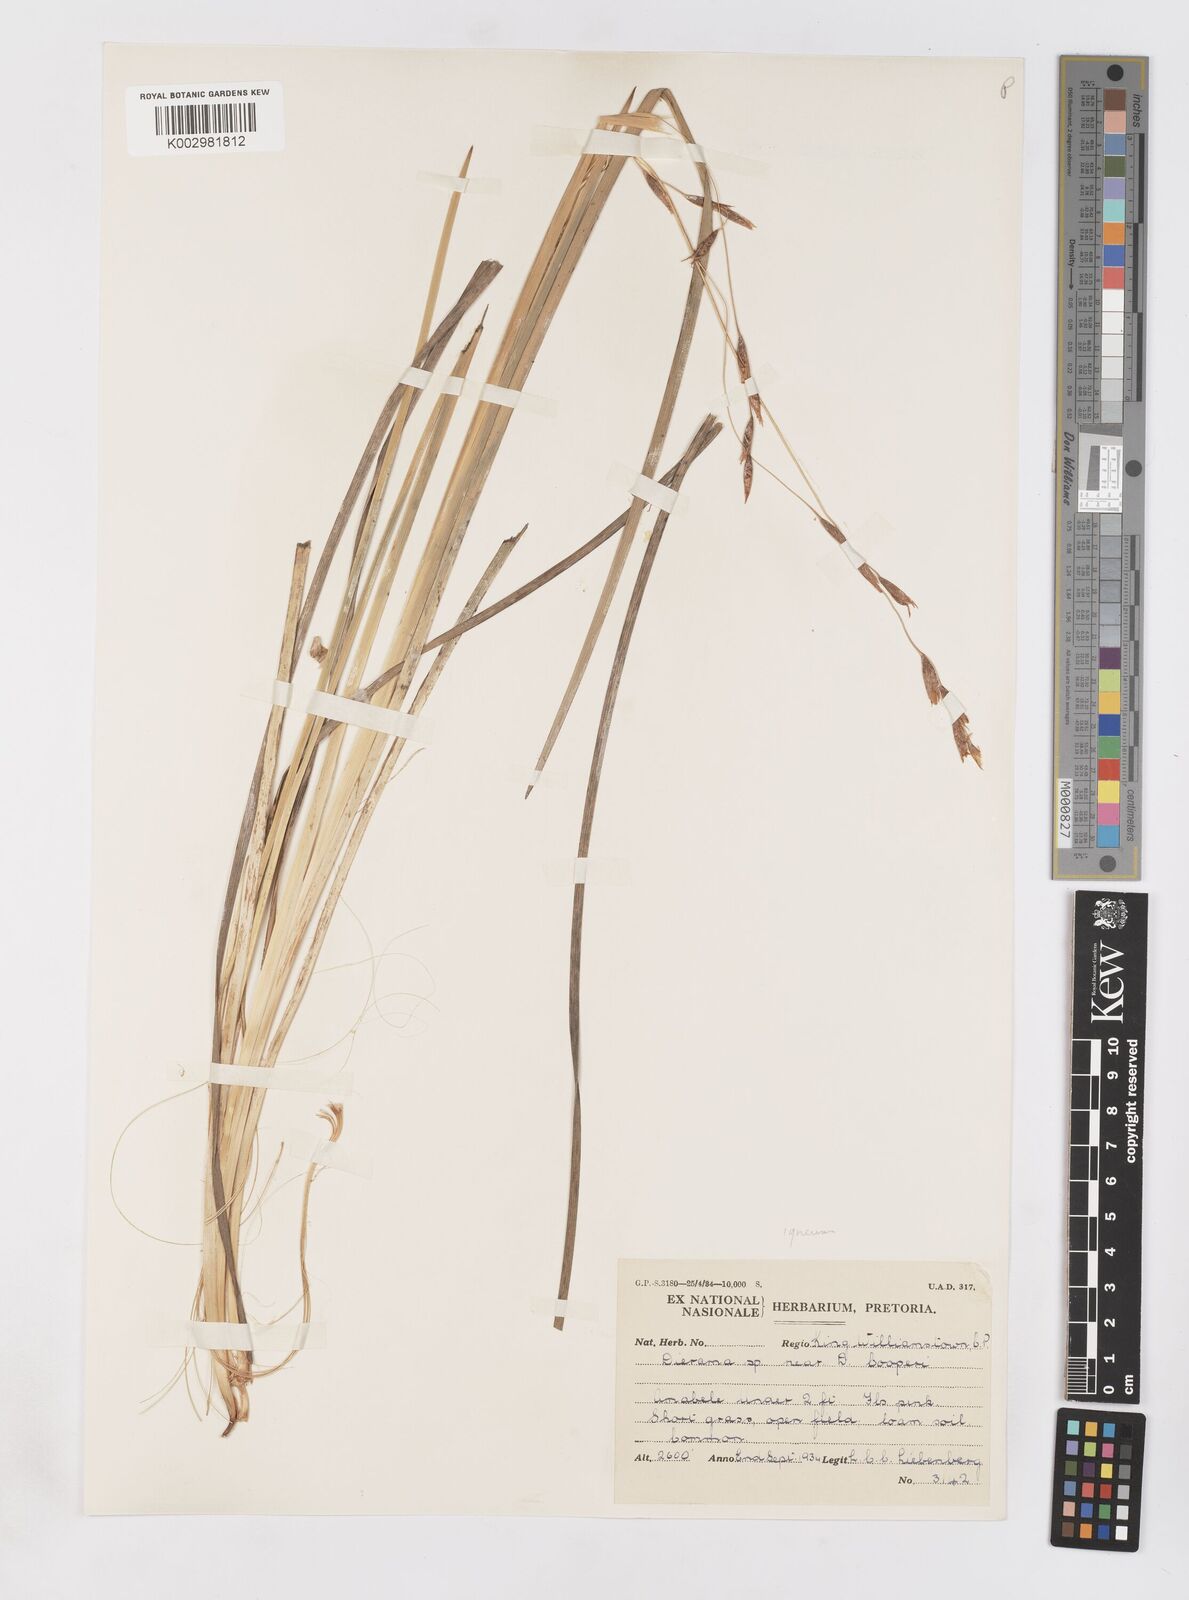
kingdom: Plantae
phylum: Tracheophyta
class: Liliopsida
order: Asparagales
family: Iridaceae
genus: Dierama
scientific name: Dierama igneum
